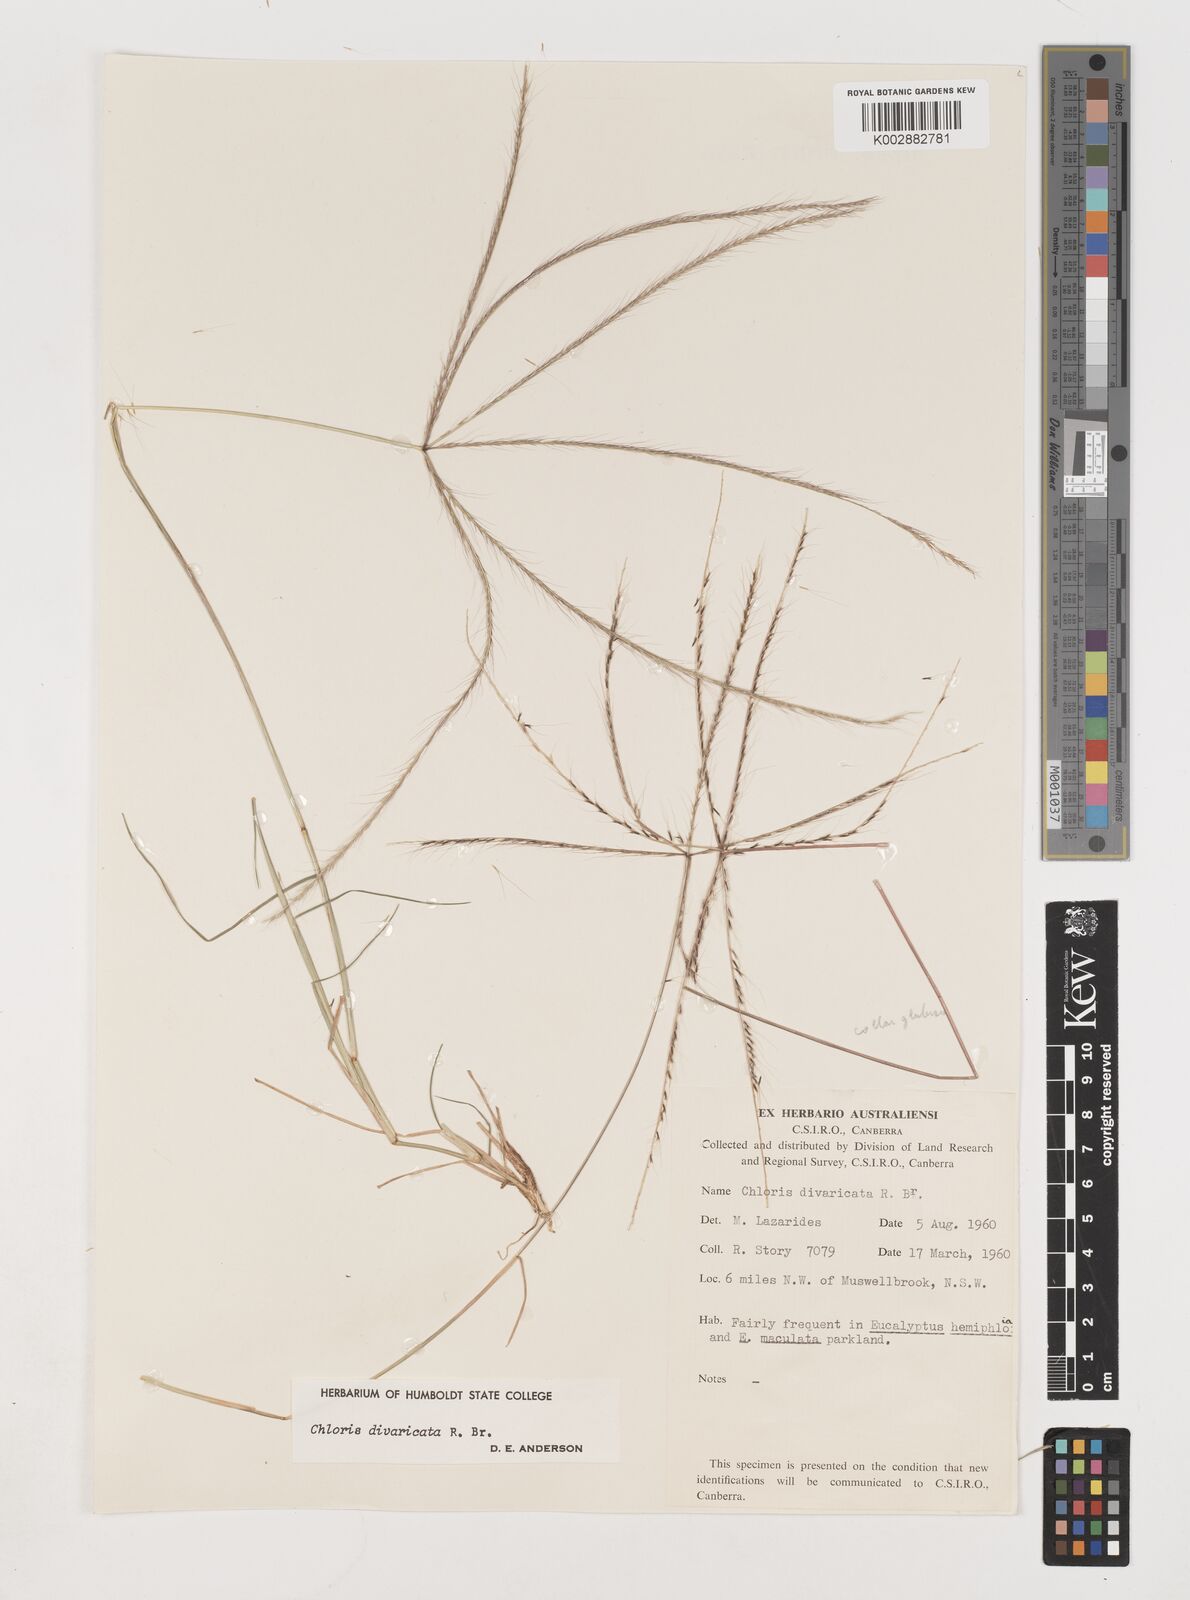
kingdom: Plantae
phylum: Tracheophyta
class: Liliopsida
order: Poales
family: Poaceae
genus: Chloris
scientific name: Chloris divaricata
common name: Spreading windmill grass
